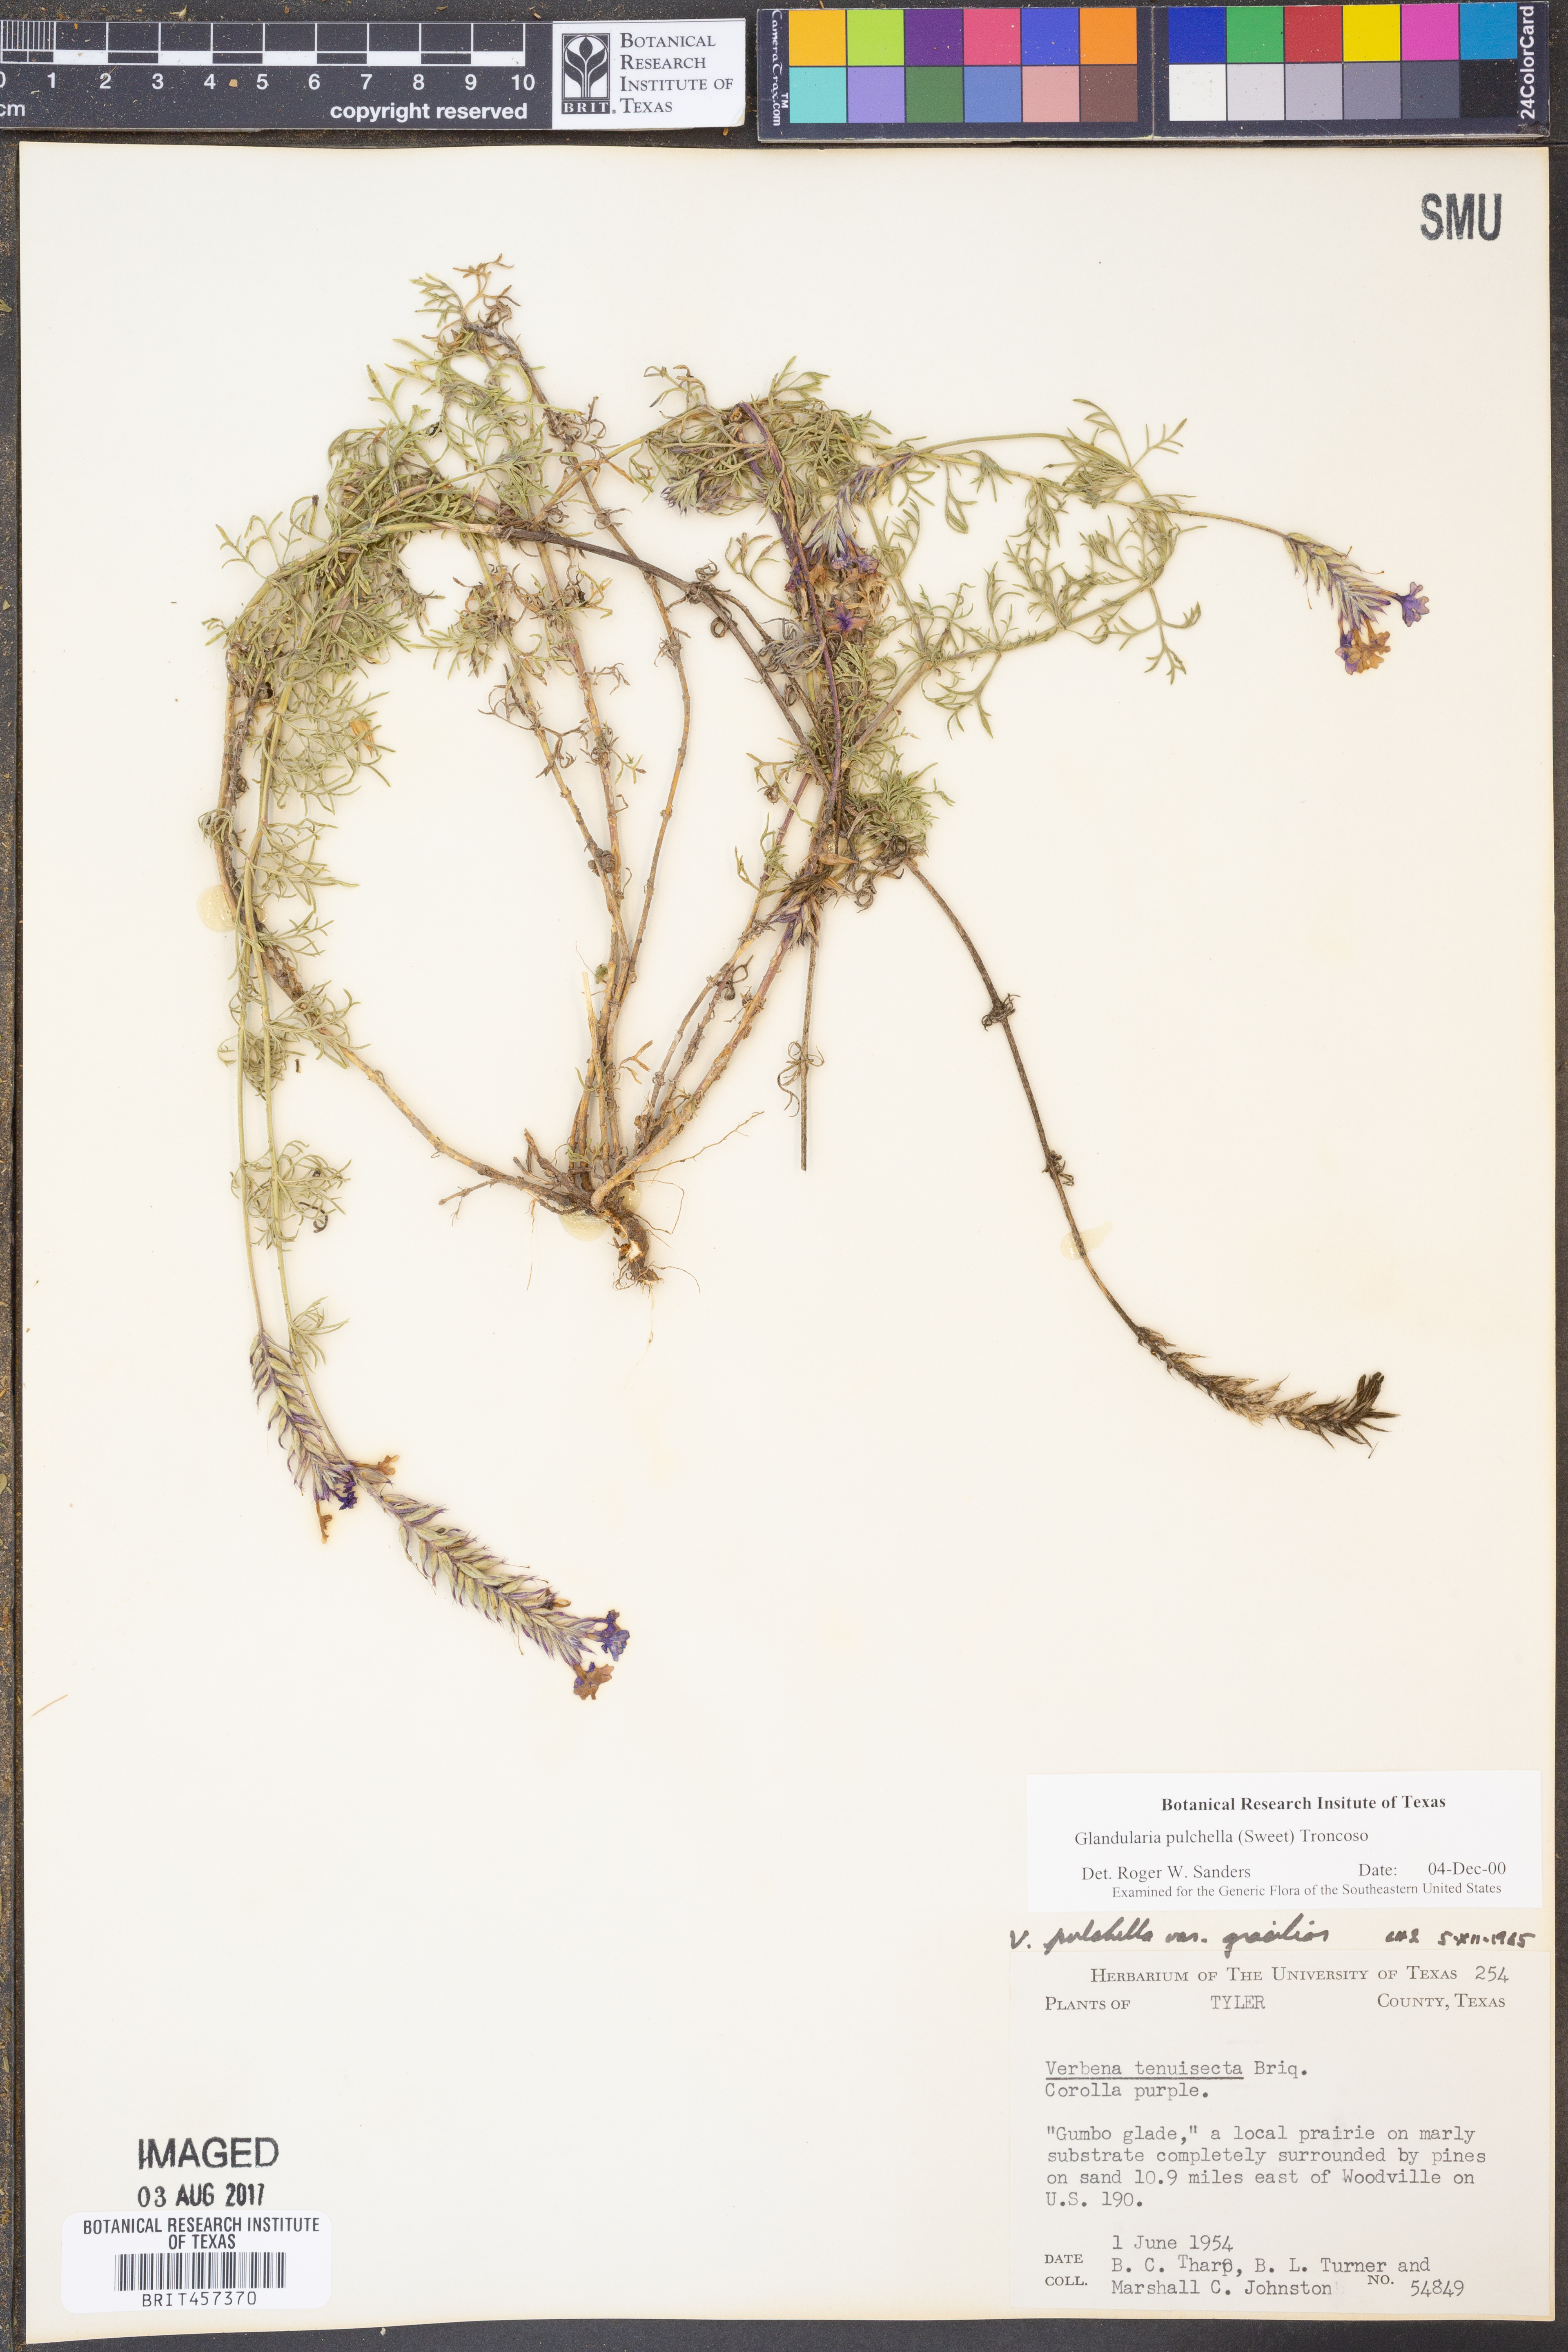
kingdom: Plantae
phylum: Tracheophyta
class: Magnoliopsida
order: Lamiales
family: Verbenaceae
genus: Verbena
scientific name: Verbena tenera
